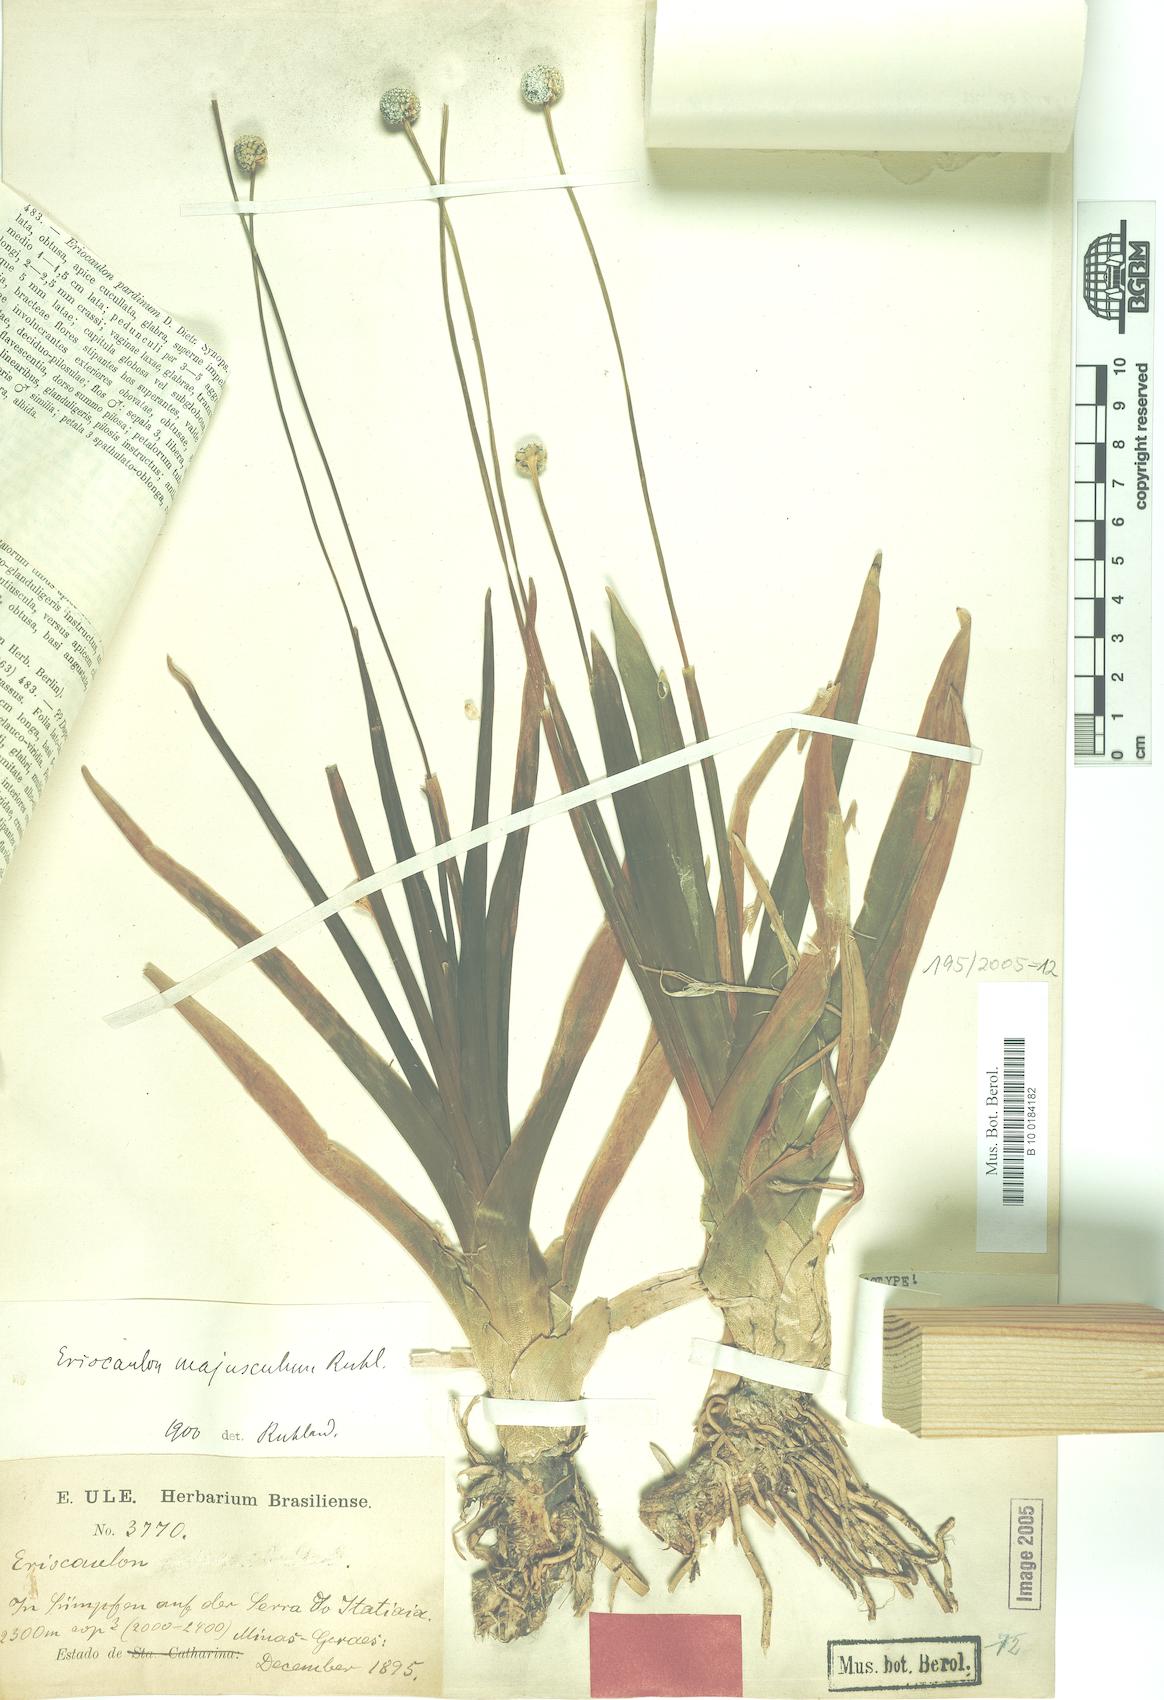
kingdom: Plantae
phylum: Tracheophyta
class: Liliopsida
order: Poales
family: Eriocaulaceae
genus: Eriocaulon
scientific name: Eriocaulon majusculum
